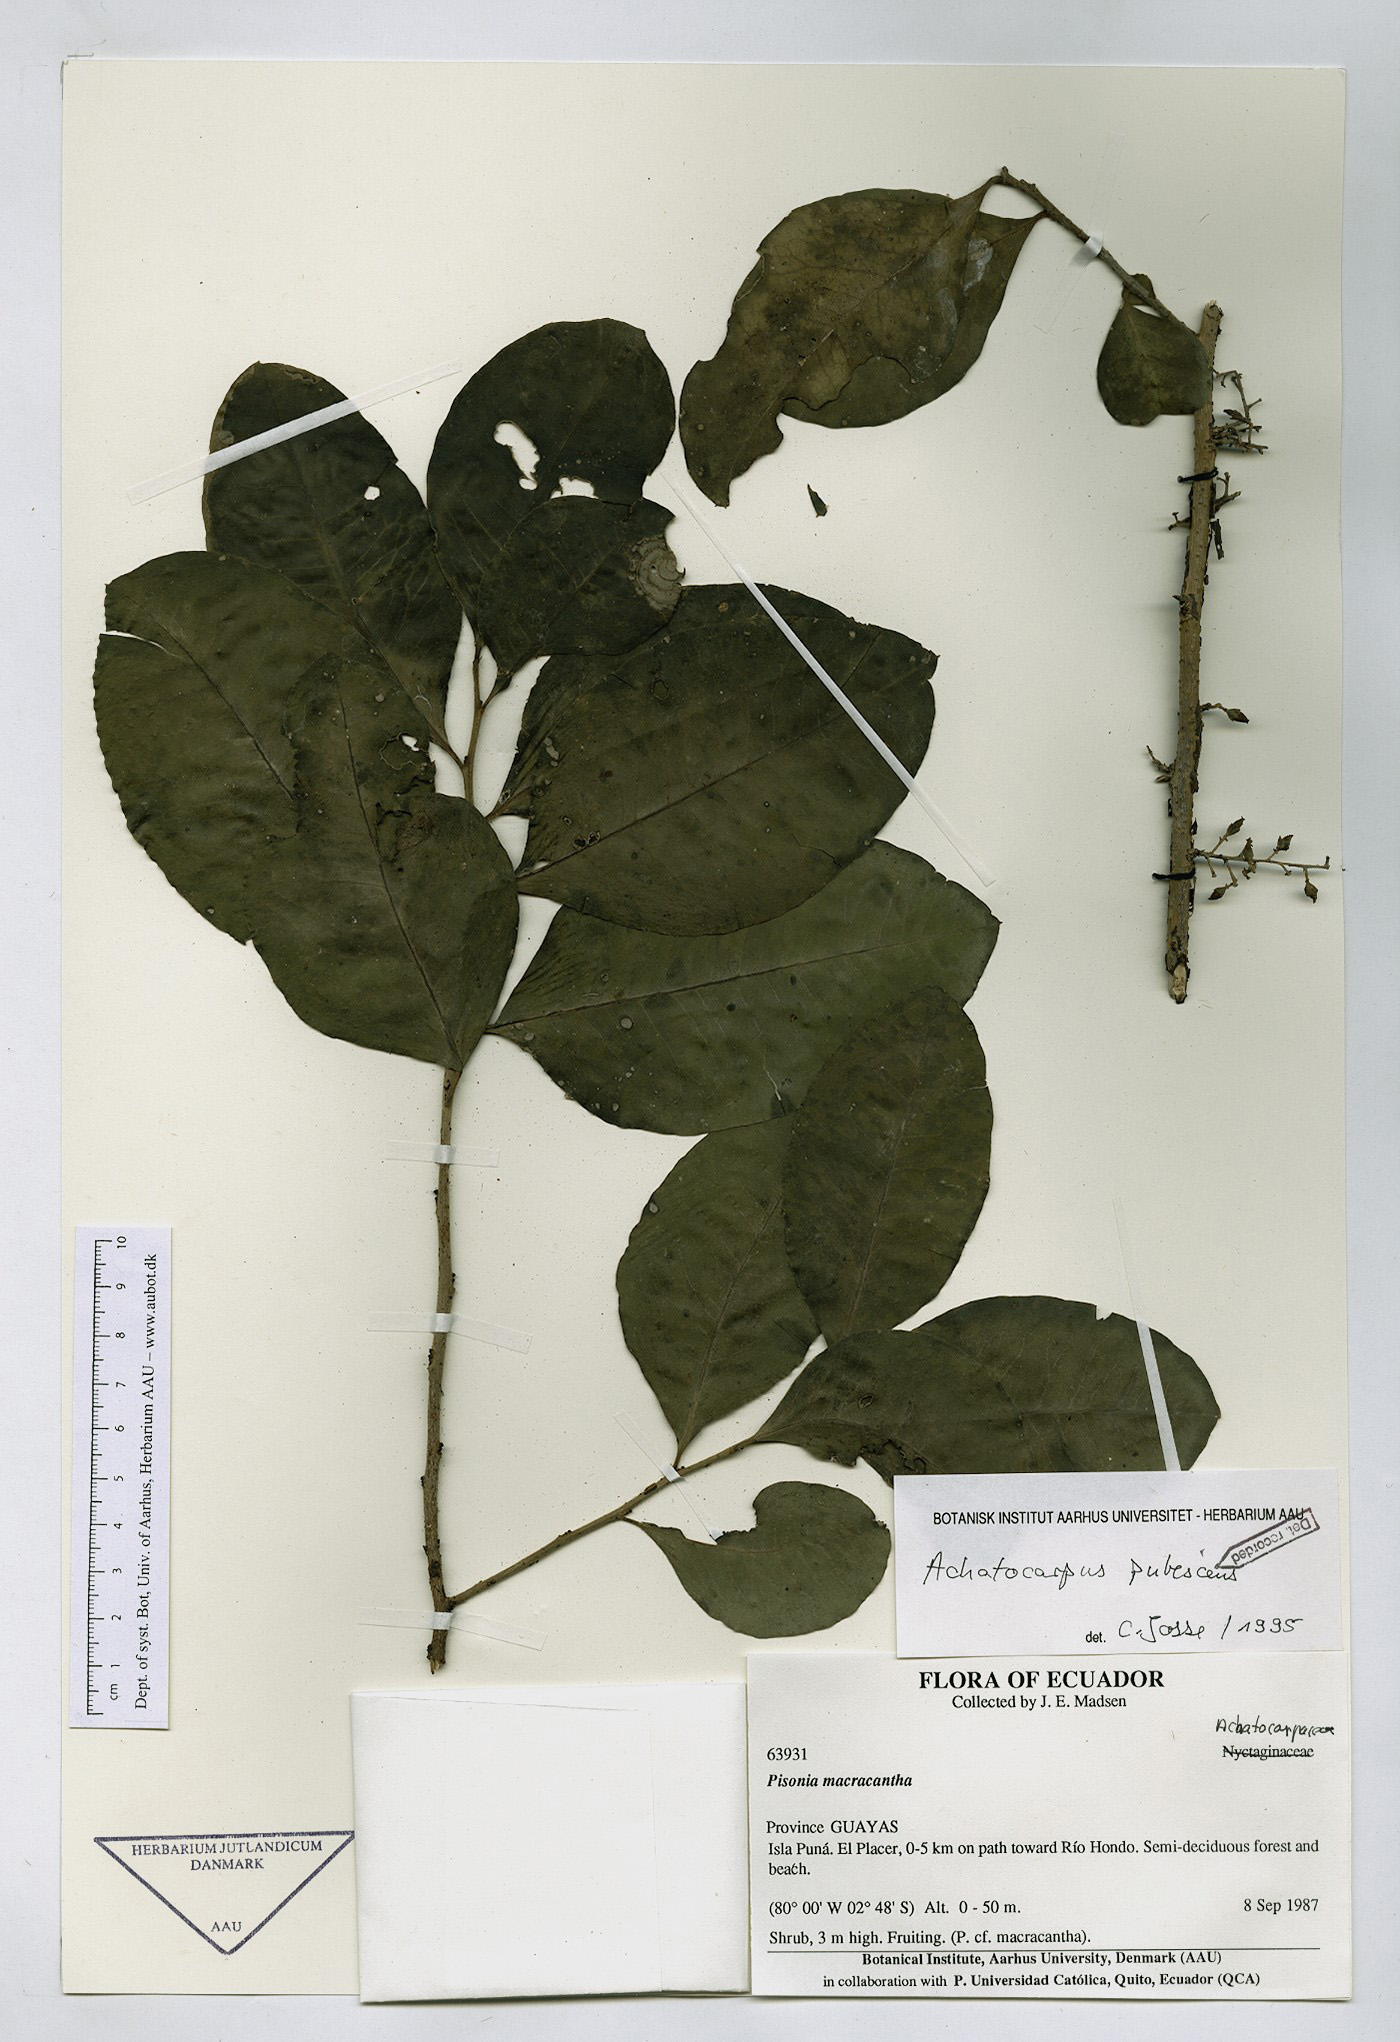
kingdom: Plantae
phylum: Tracheophyta
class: Magnoliopsida
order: Caryophyllales
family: Achatocarpaceae
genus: Achatocarpus
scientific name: Achatocarpus pubescens
